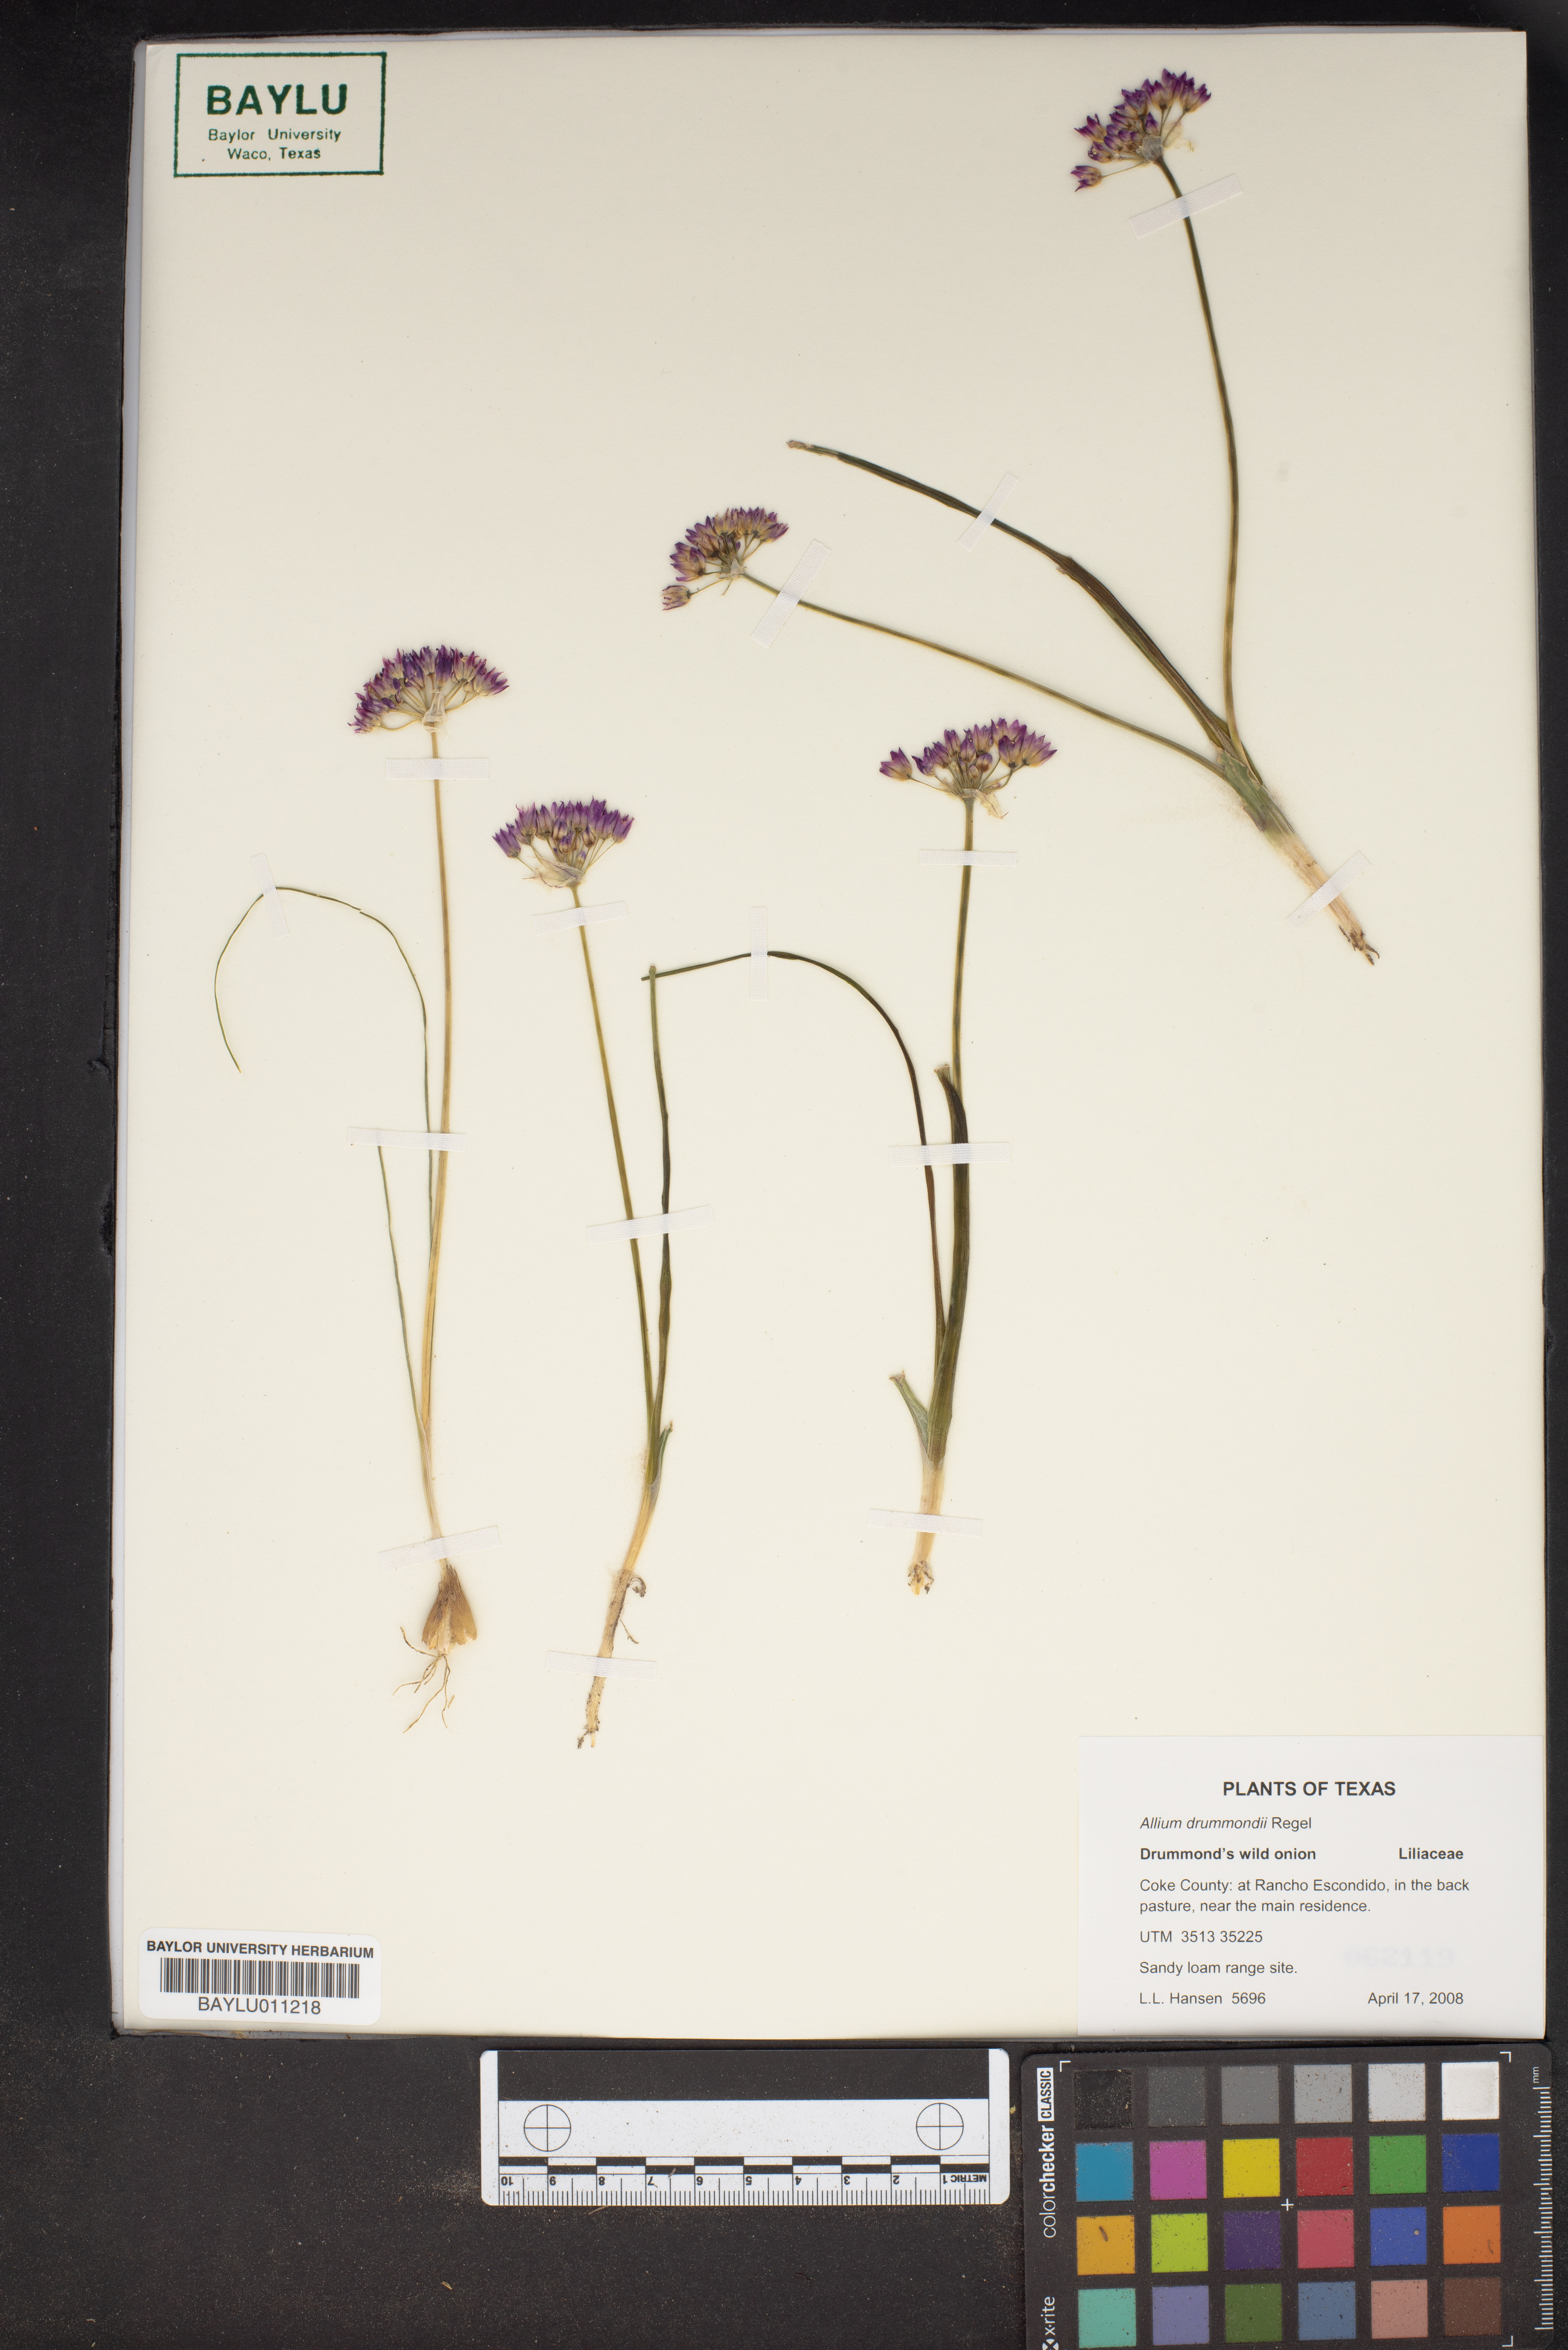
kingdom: Plantae
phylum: Tracheophyta
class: Liliopsida
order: Asparagales
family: Amaryllidaceae
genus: Allium
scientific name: Allium drummondii
